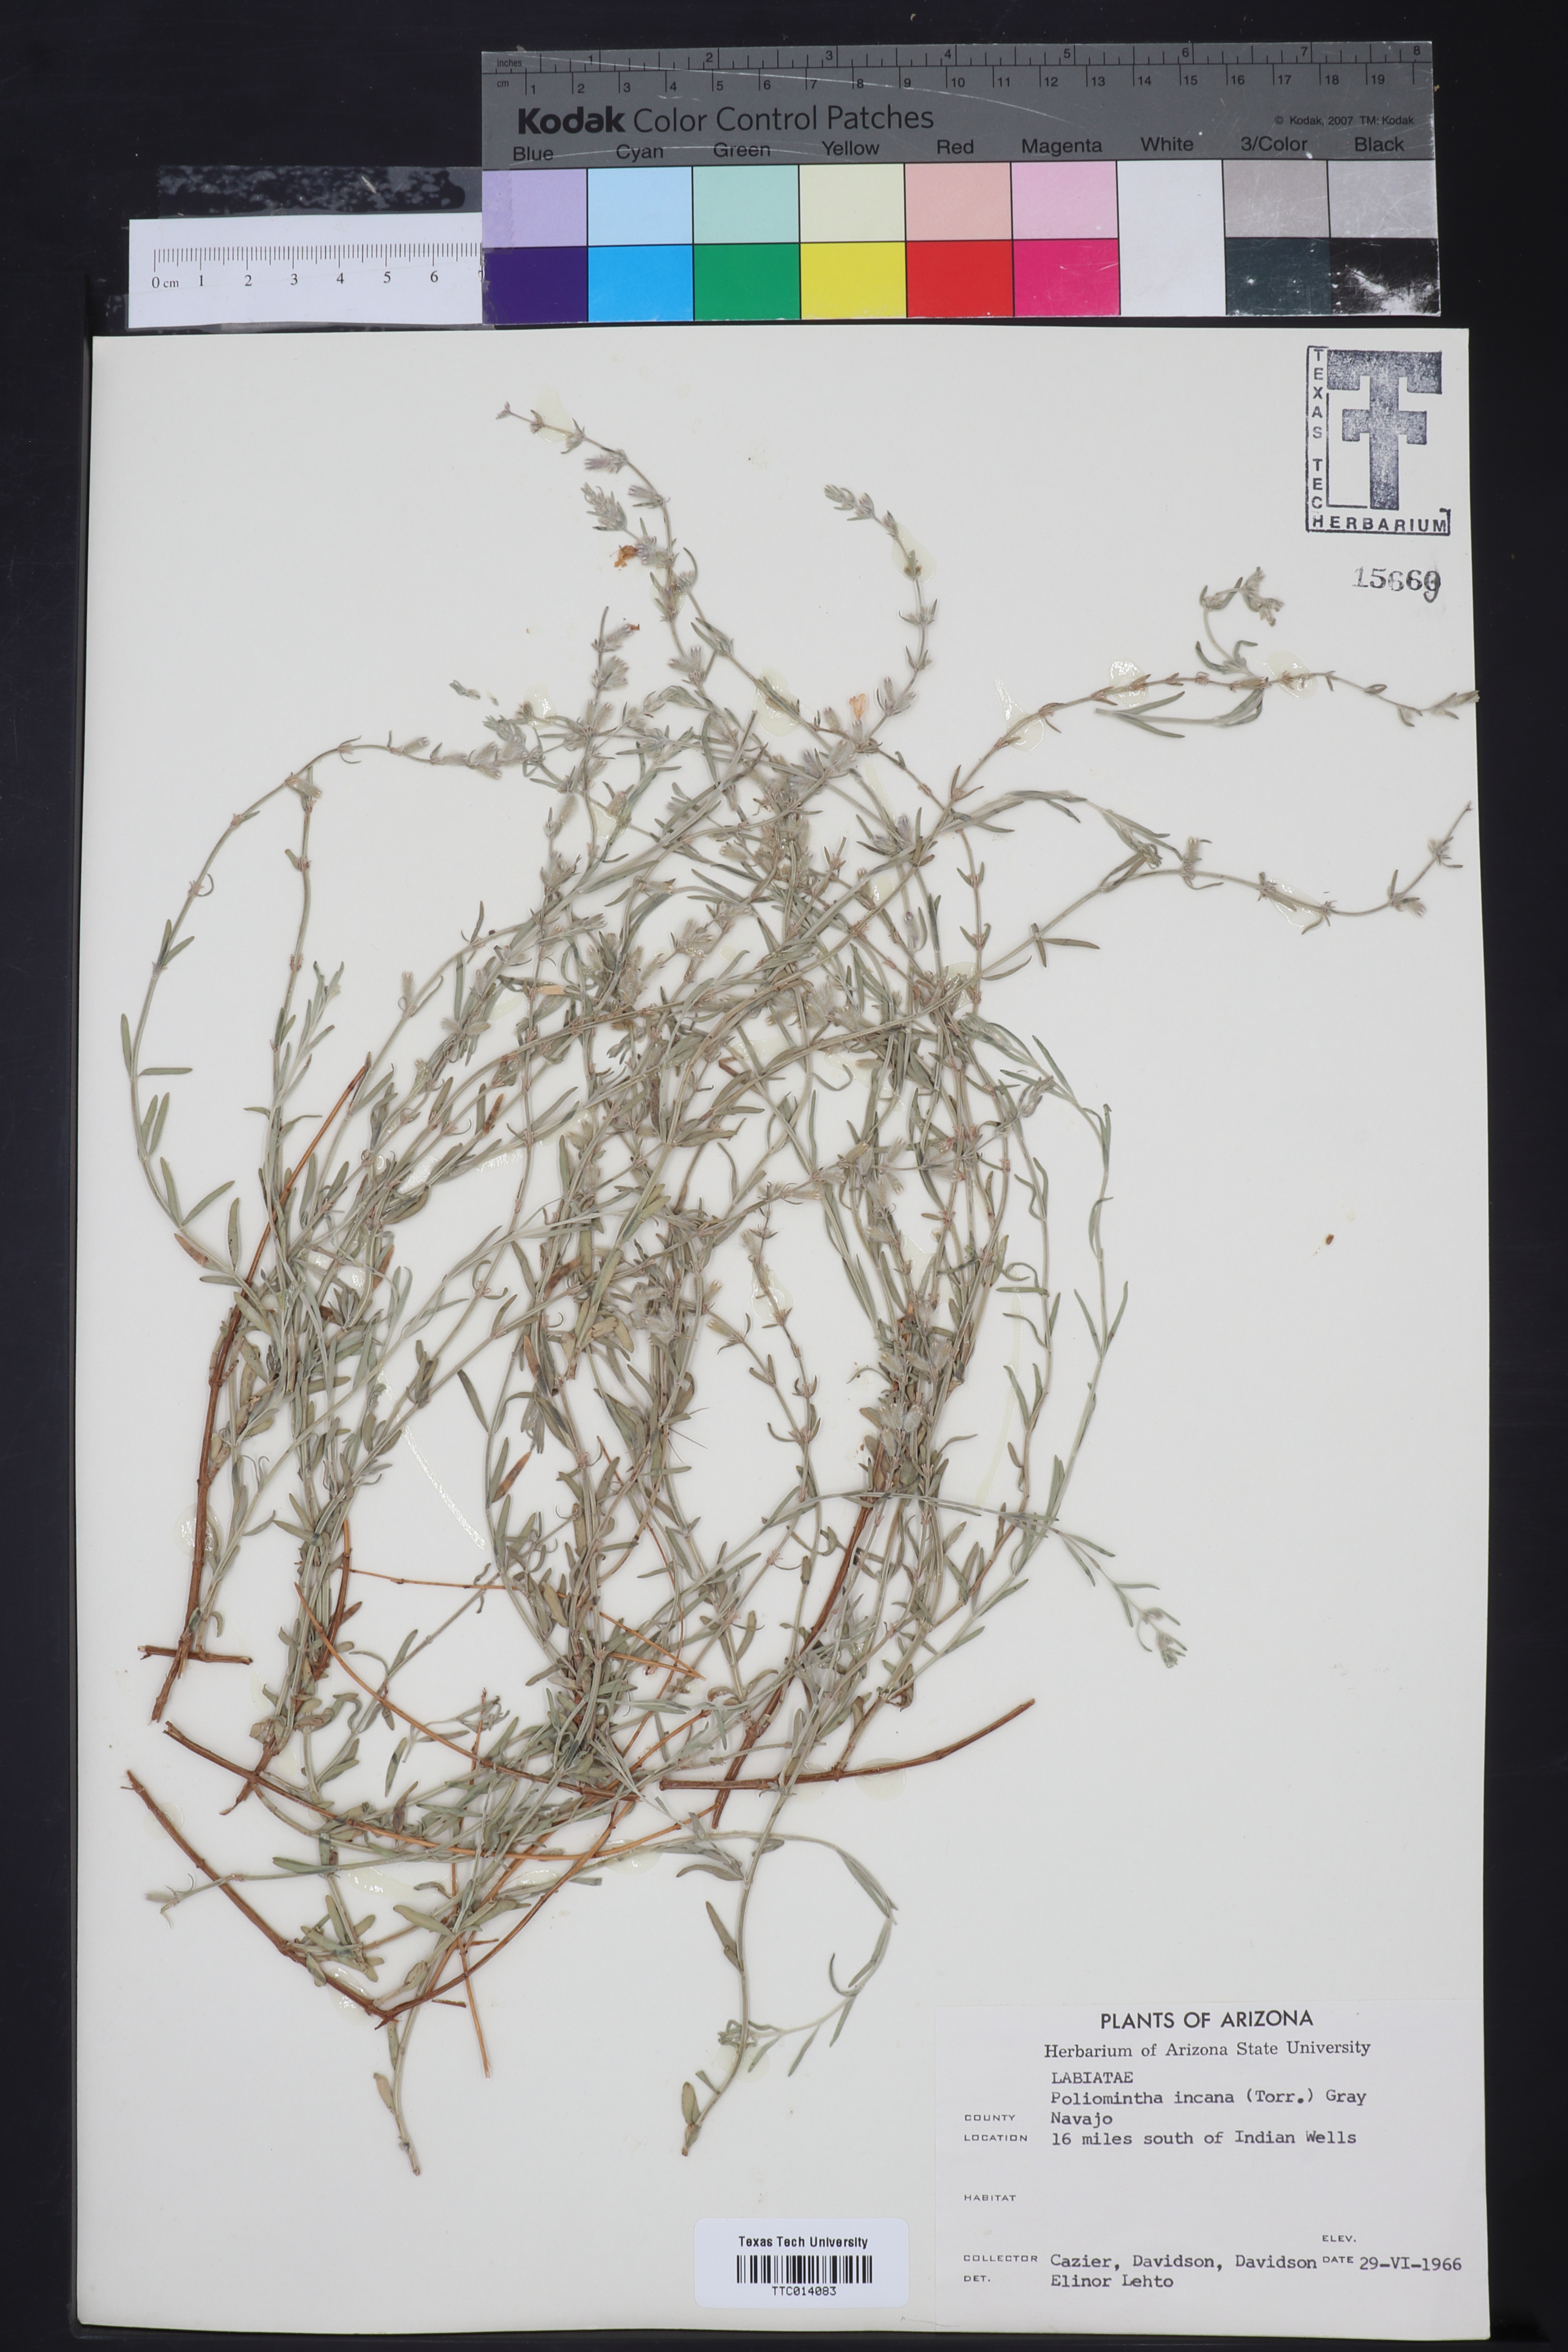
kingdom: Plantae
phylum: Tracheophyta
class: Magnoliopsida
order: Lamiales
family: Lamiaceae
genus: Poliomintha
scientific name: Poliomintha incana
